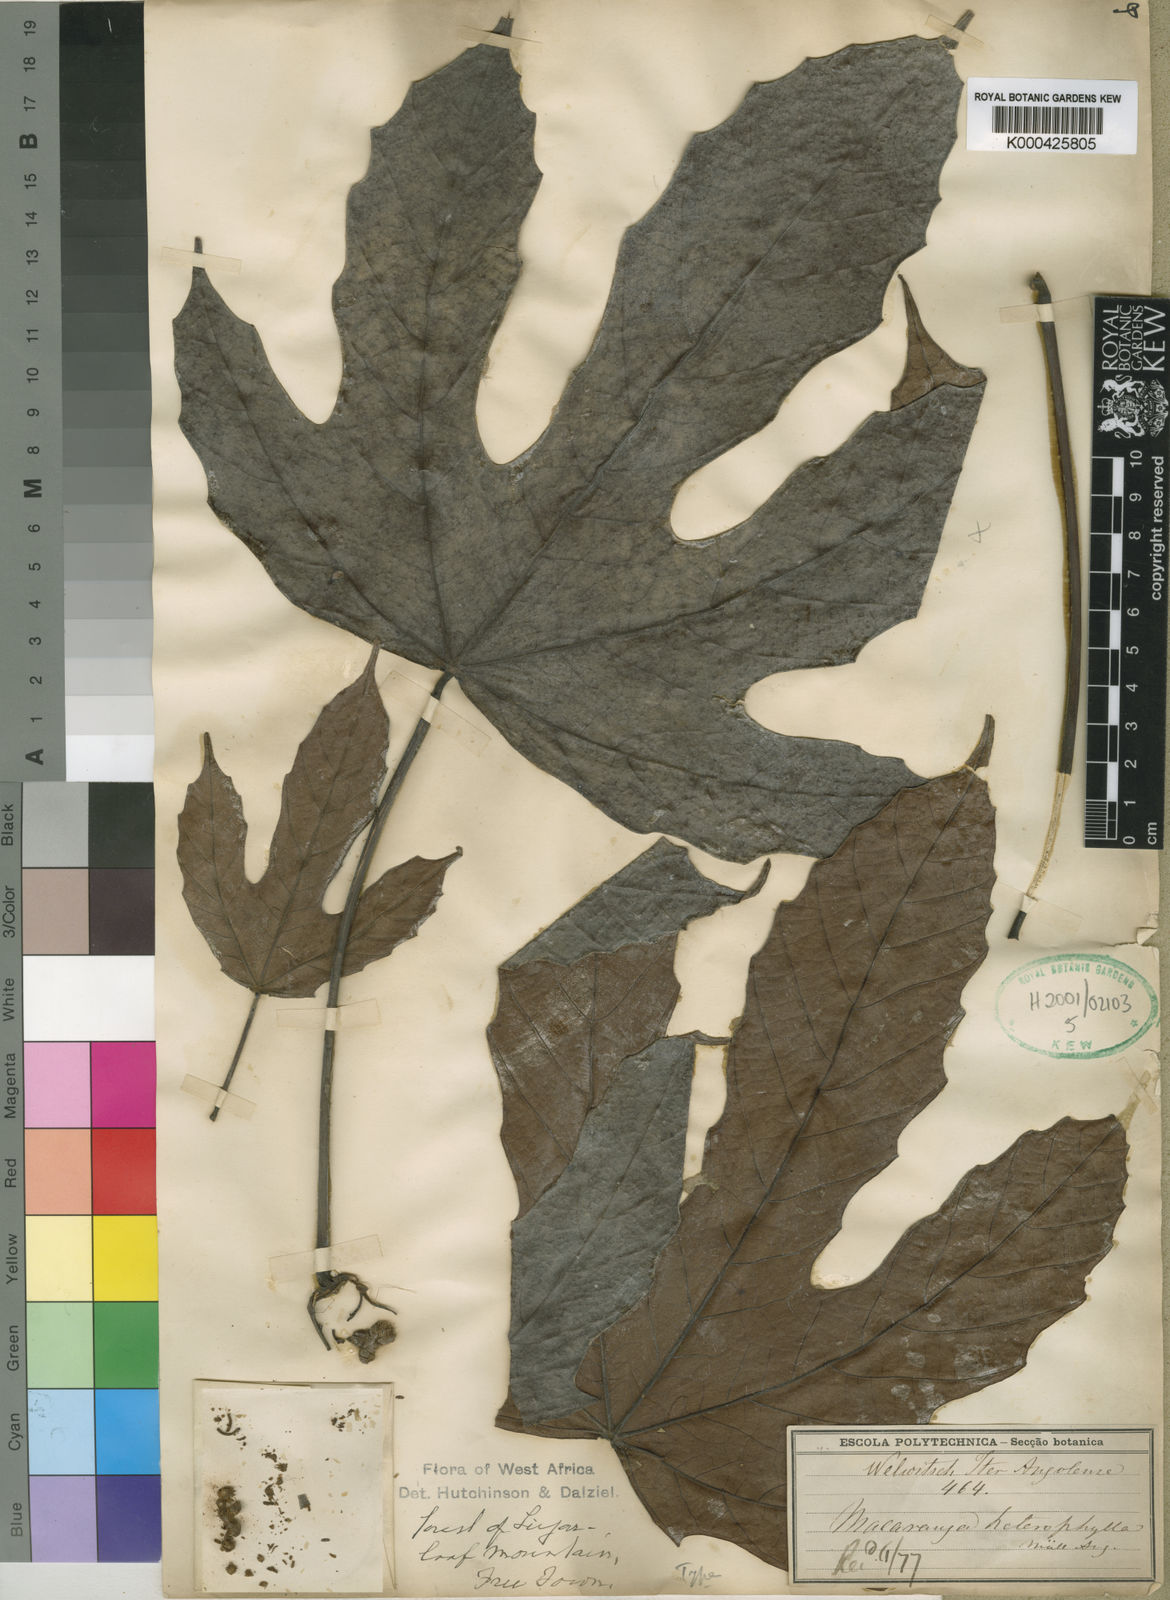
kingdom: Plantae
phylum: Tracheophyta
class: Magnoliopsida
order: Malpighiales
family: Euphorbiaceae
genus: Macaranga
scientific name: Macaranga
